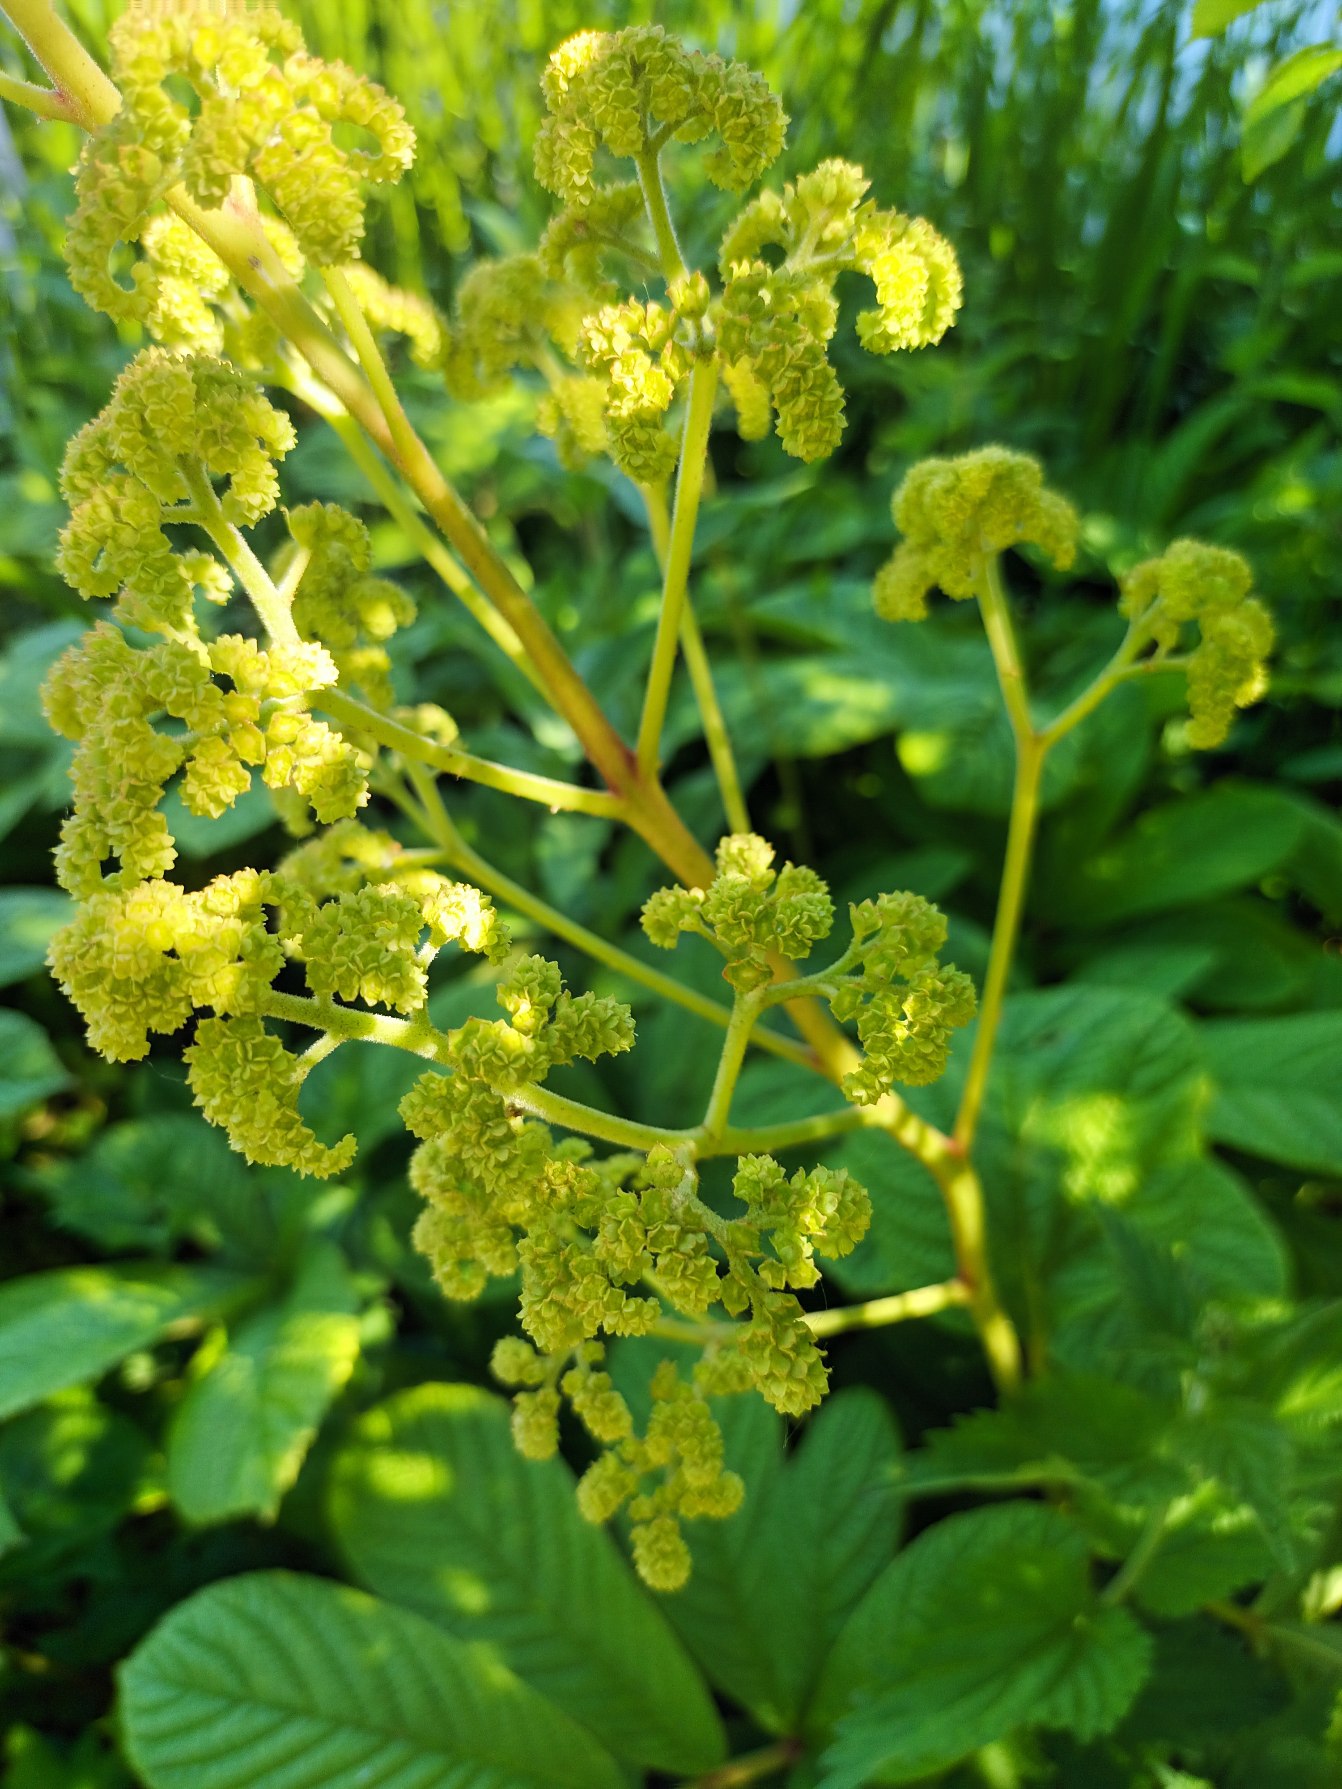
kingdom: Plantae
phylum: Tracheophyta
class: Magnoliopsida
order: Saxifragales
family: Saxifragaceae
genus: Rodgersia
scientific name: Rodgersia pinnata
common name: Finnet bronzeblad
